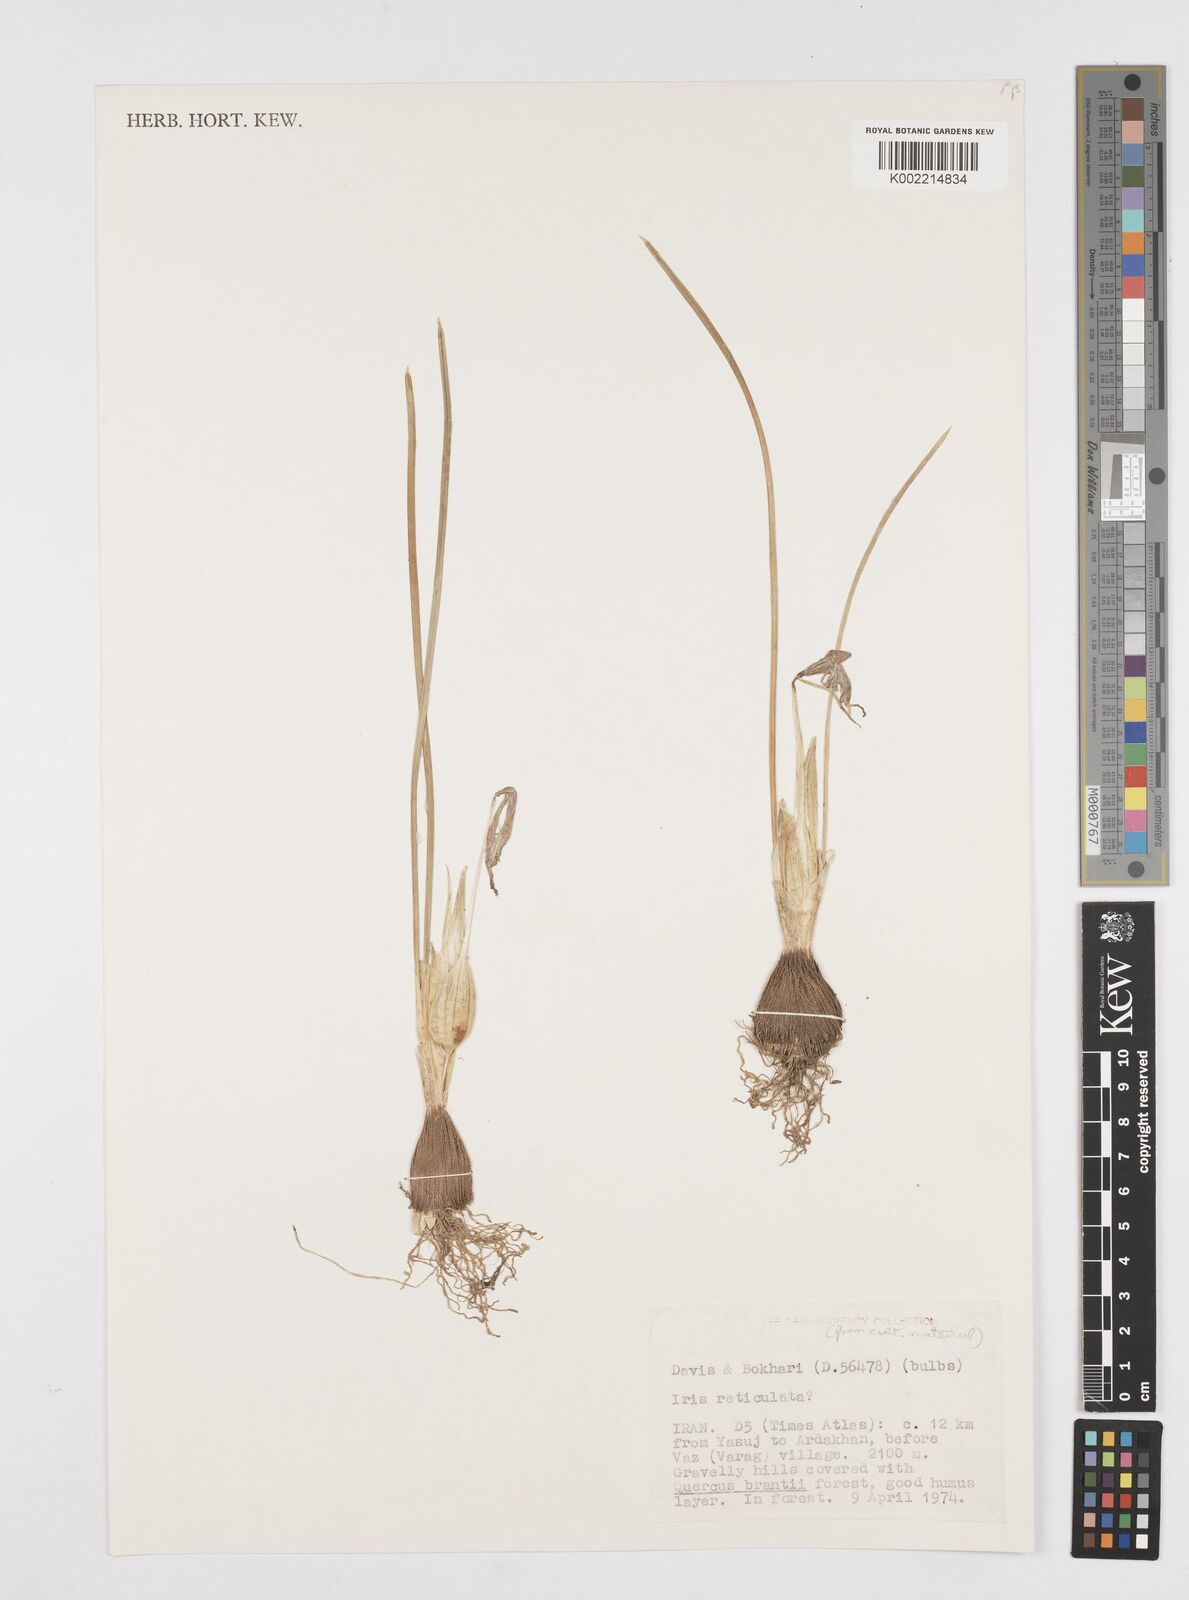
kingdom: Plantae
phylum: Tracheophyta
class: Liliopsida
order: Asparagales
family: Iridaceae
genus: Iris
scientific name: Iris reticulata
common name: Netted iris
